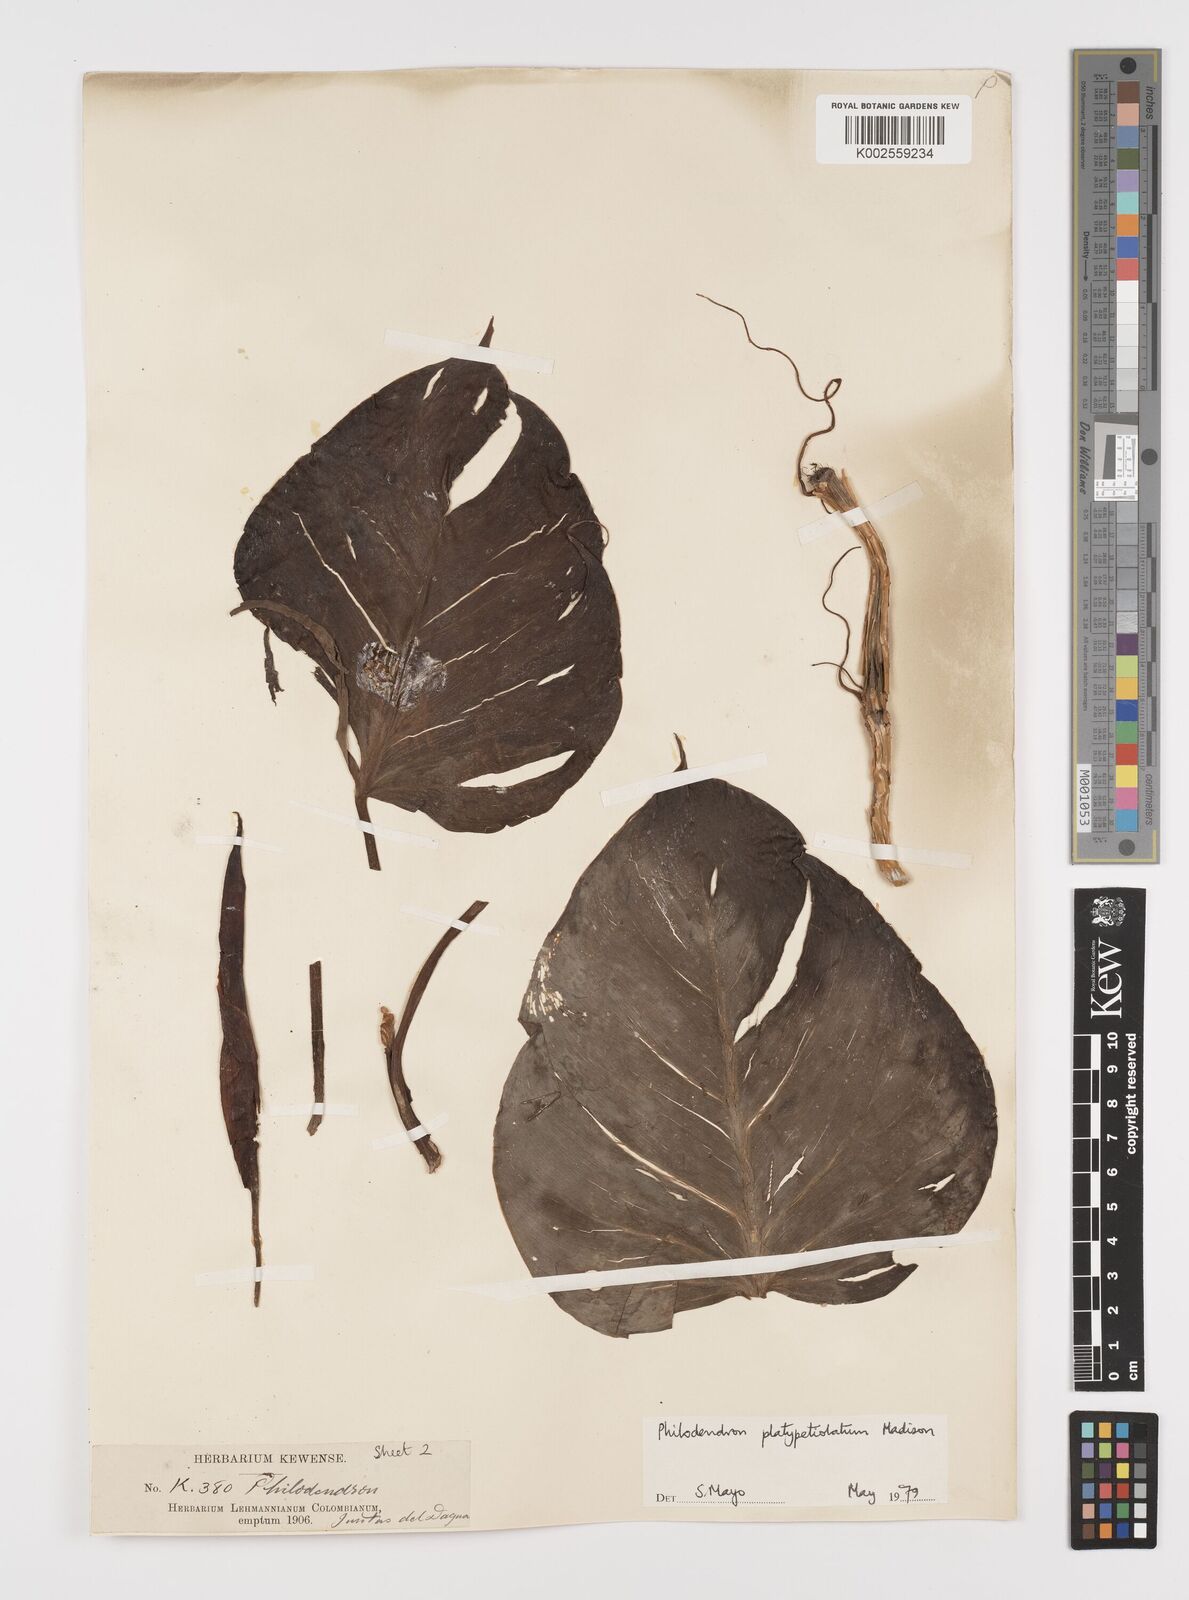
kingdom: Plantae
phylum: Tracheophyta
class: Liliopsida
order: Alismatales
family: Araceae
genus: Philodendron
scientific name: Philodendron platypetiolatum
